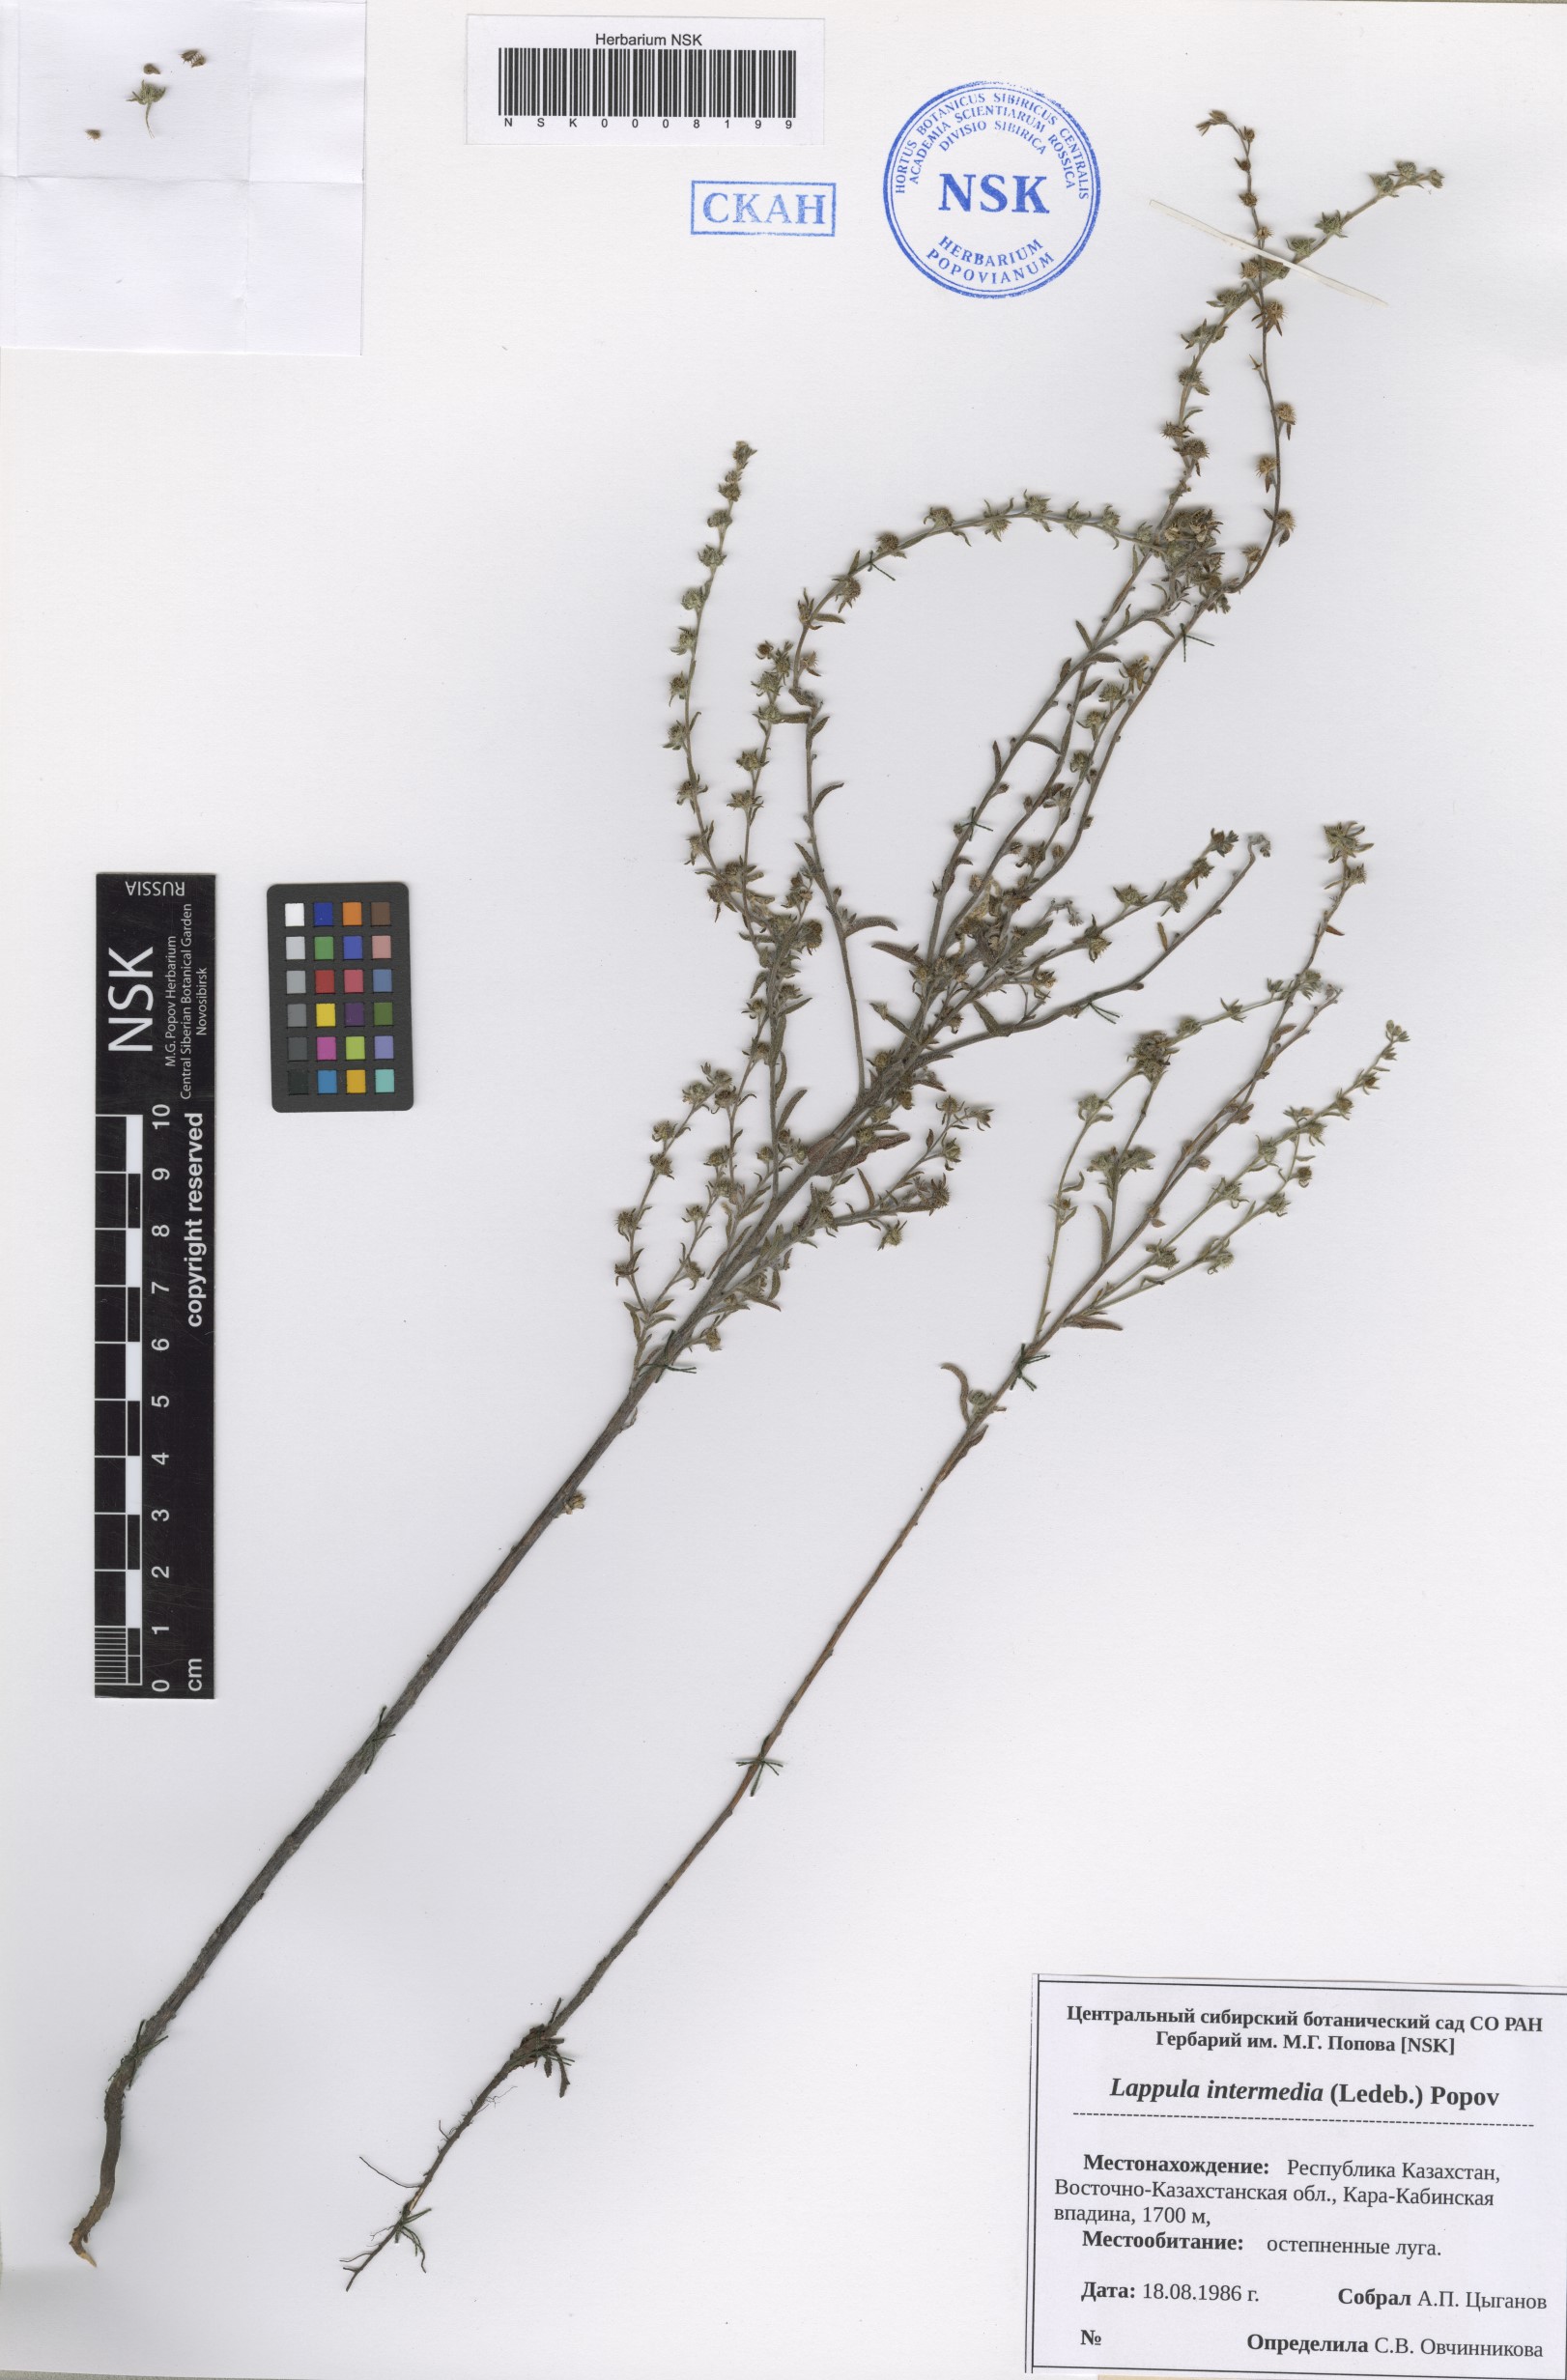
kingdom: Plantae
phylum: Tracheophyta
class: Magnoliopsida
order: Boraginales
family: Boraginaceae
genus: Lappula
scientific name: Lappula intermedia
